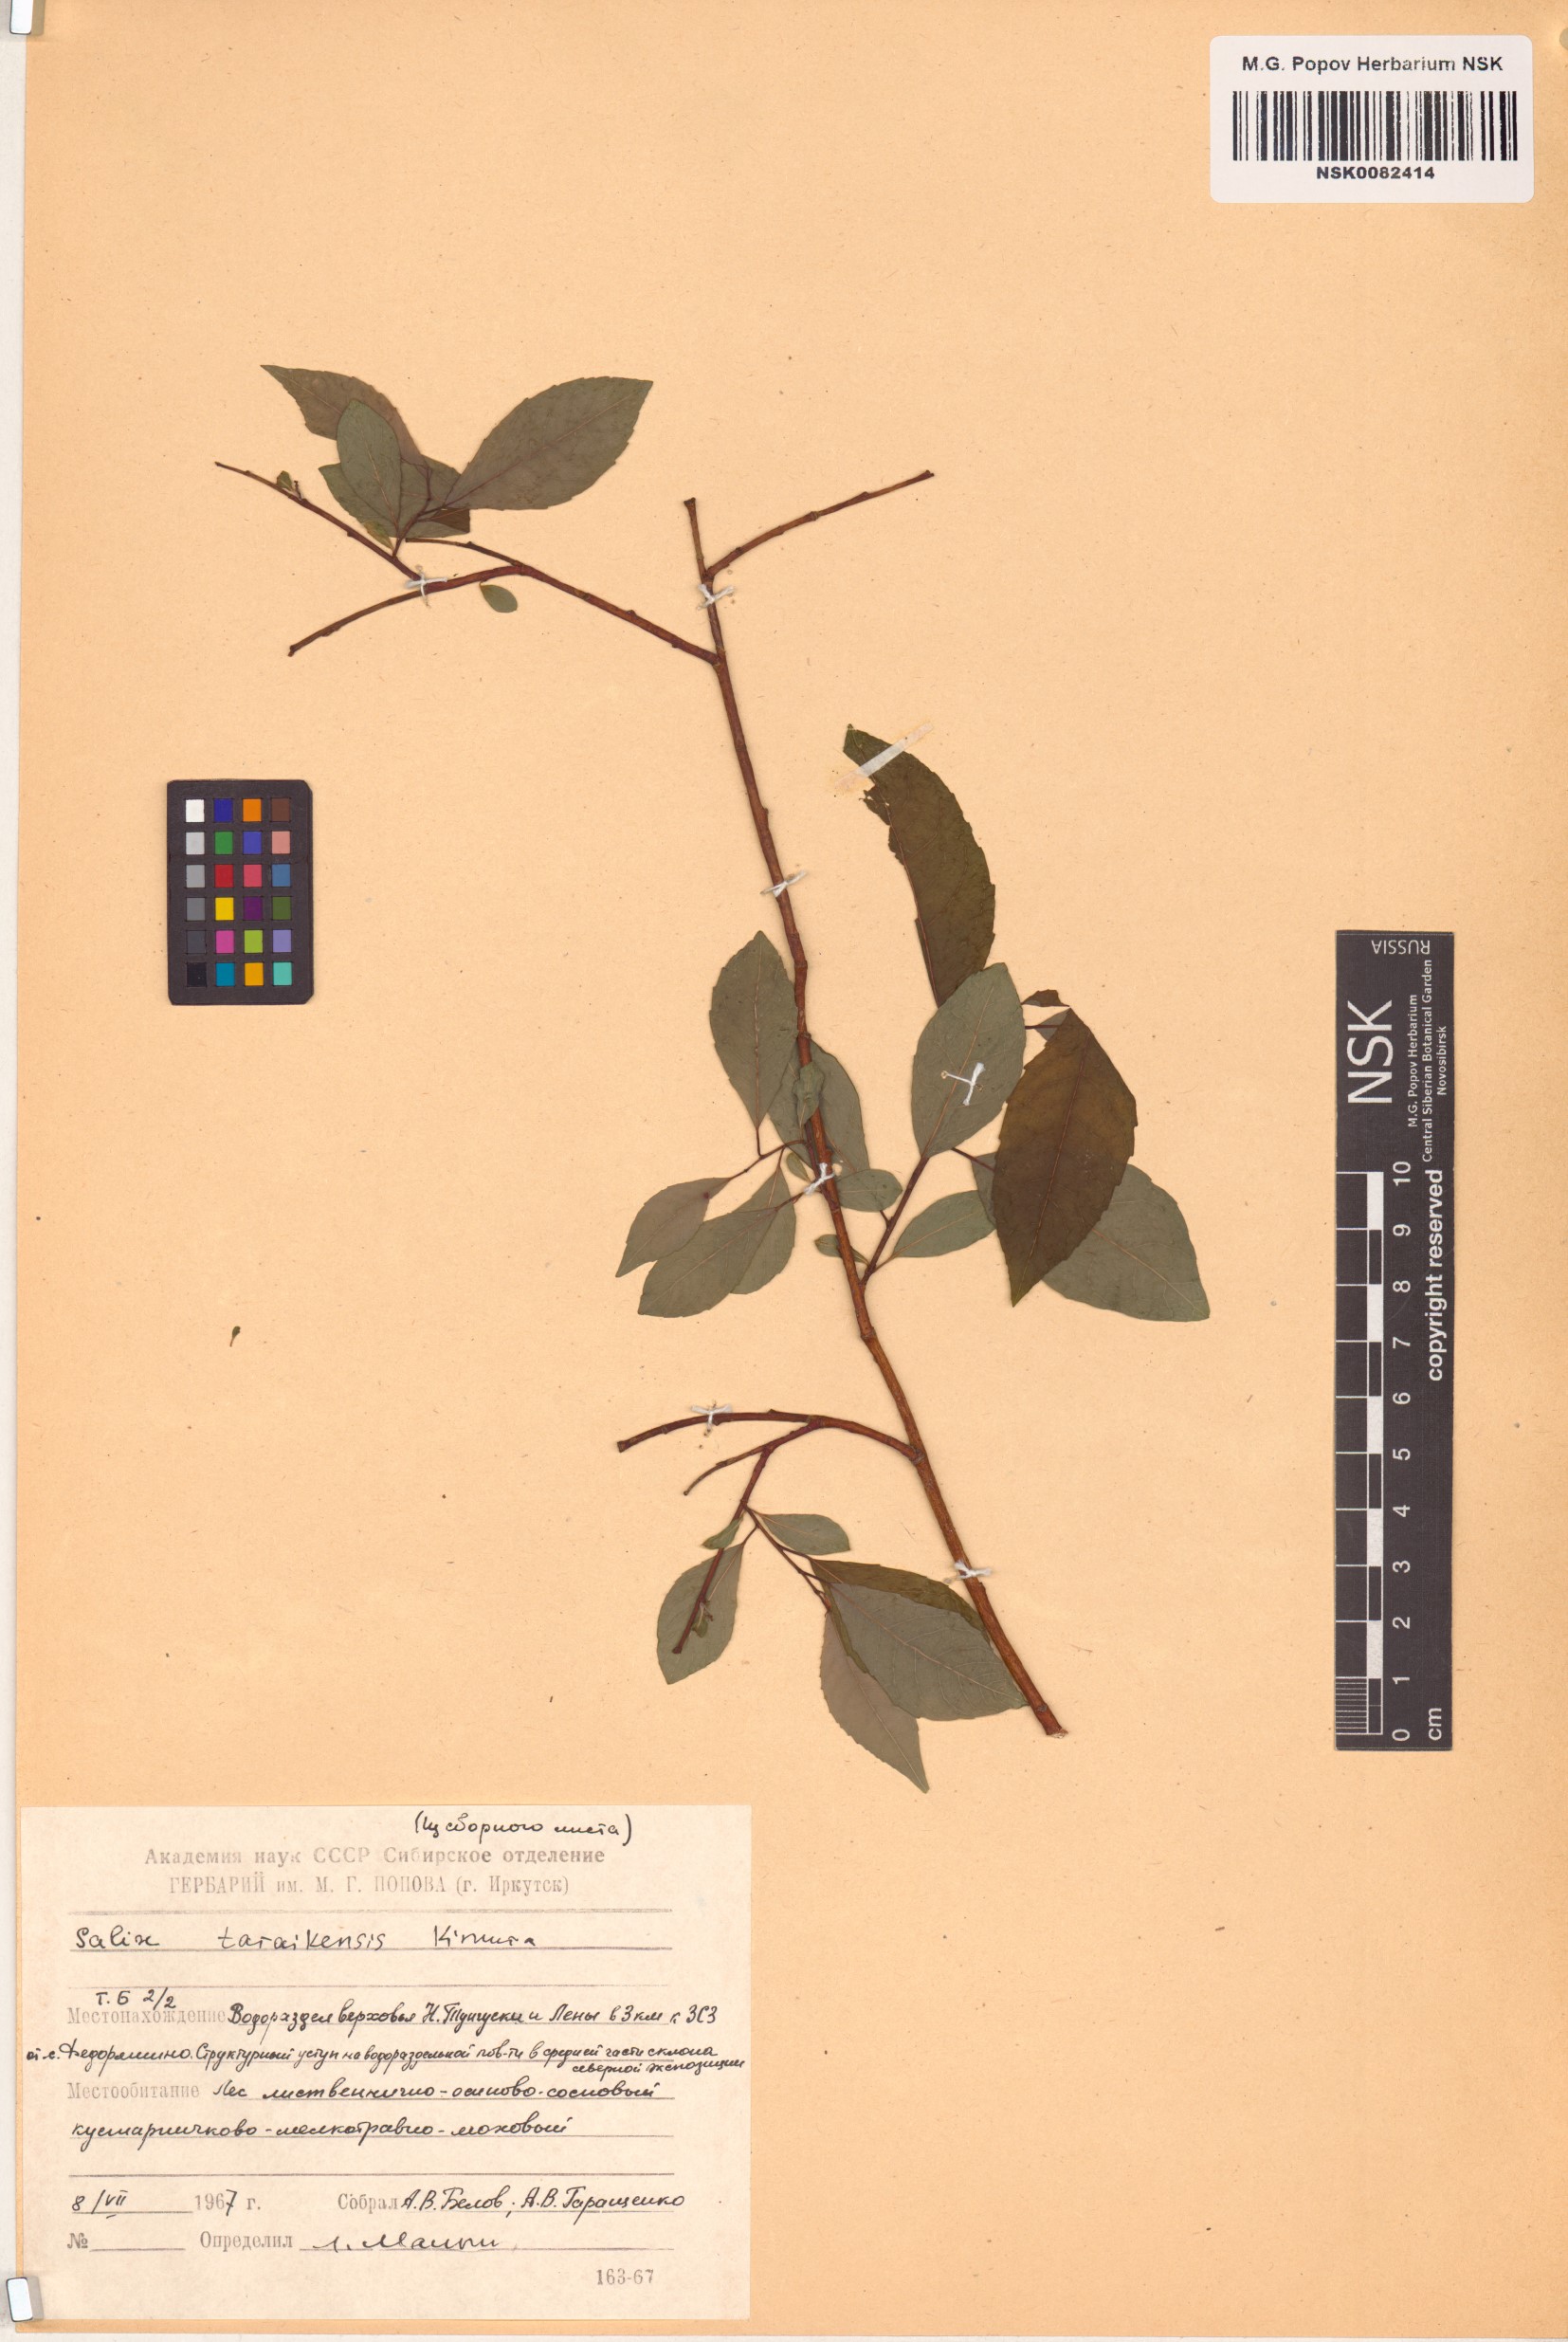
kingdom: Plantae
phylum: Tracheophyta
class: Magnoliopsida
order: Malpighiales
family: Salicaceae
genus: Salix
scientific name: Salix taraikensis
